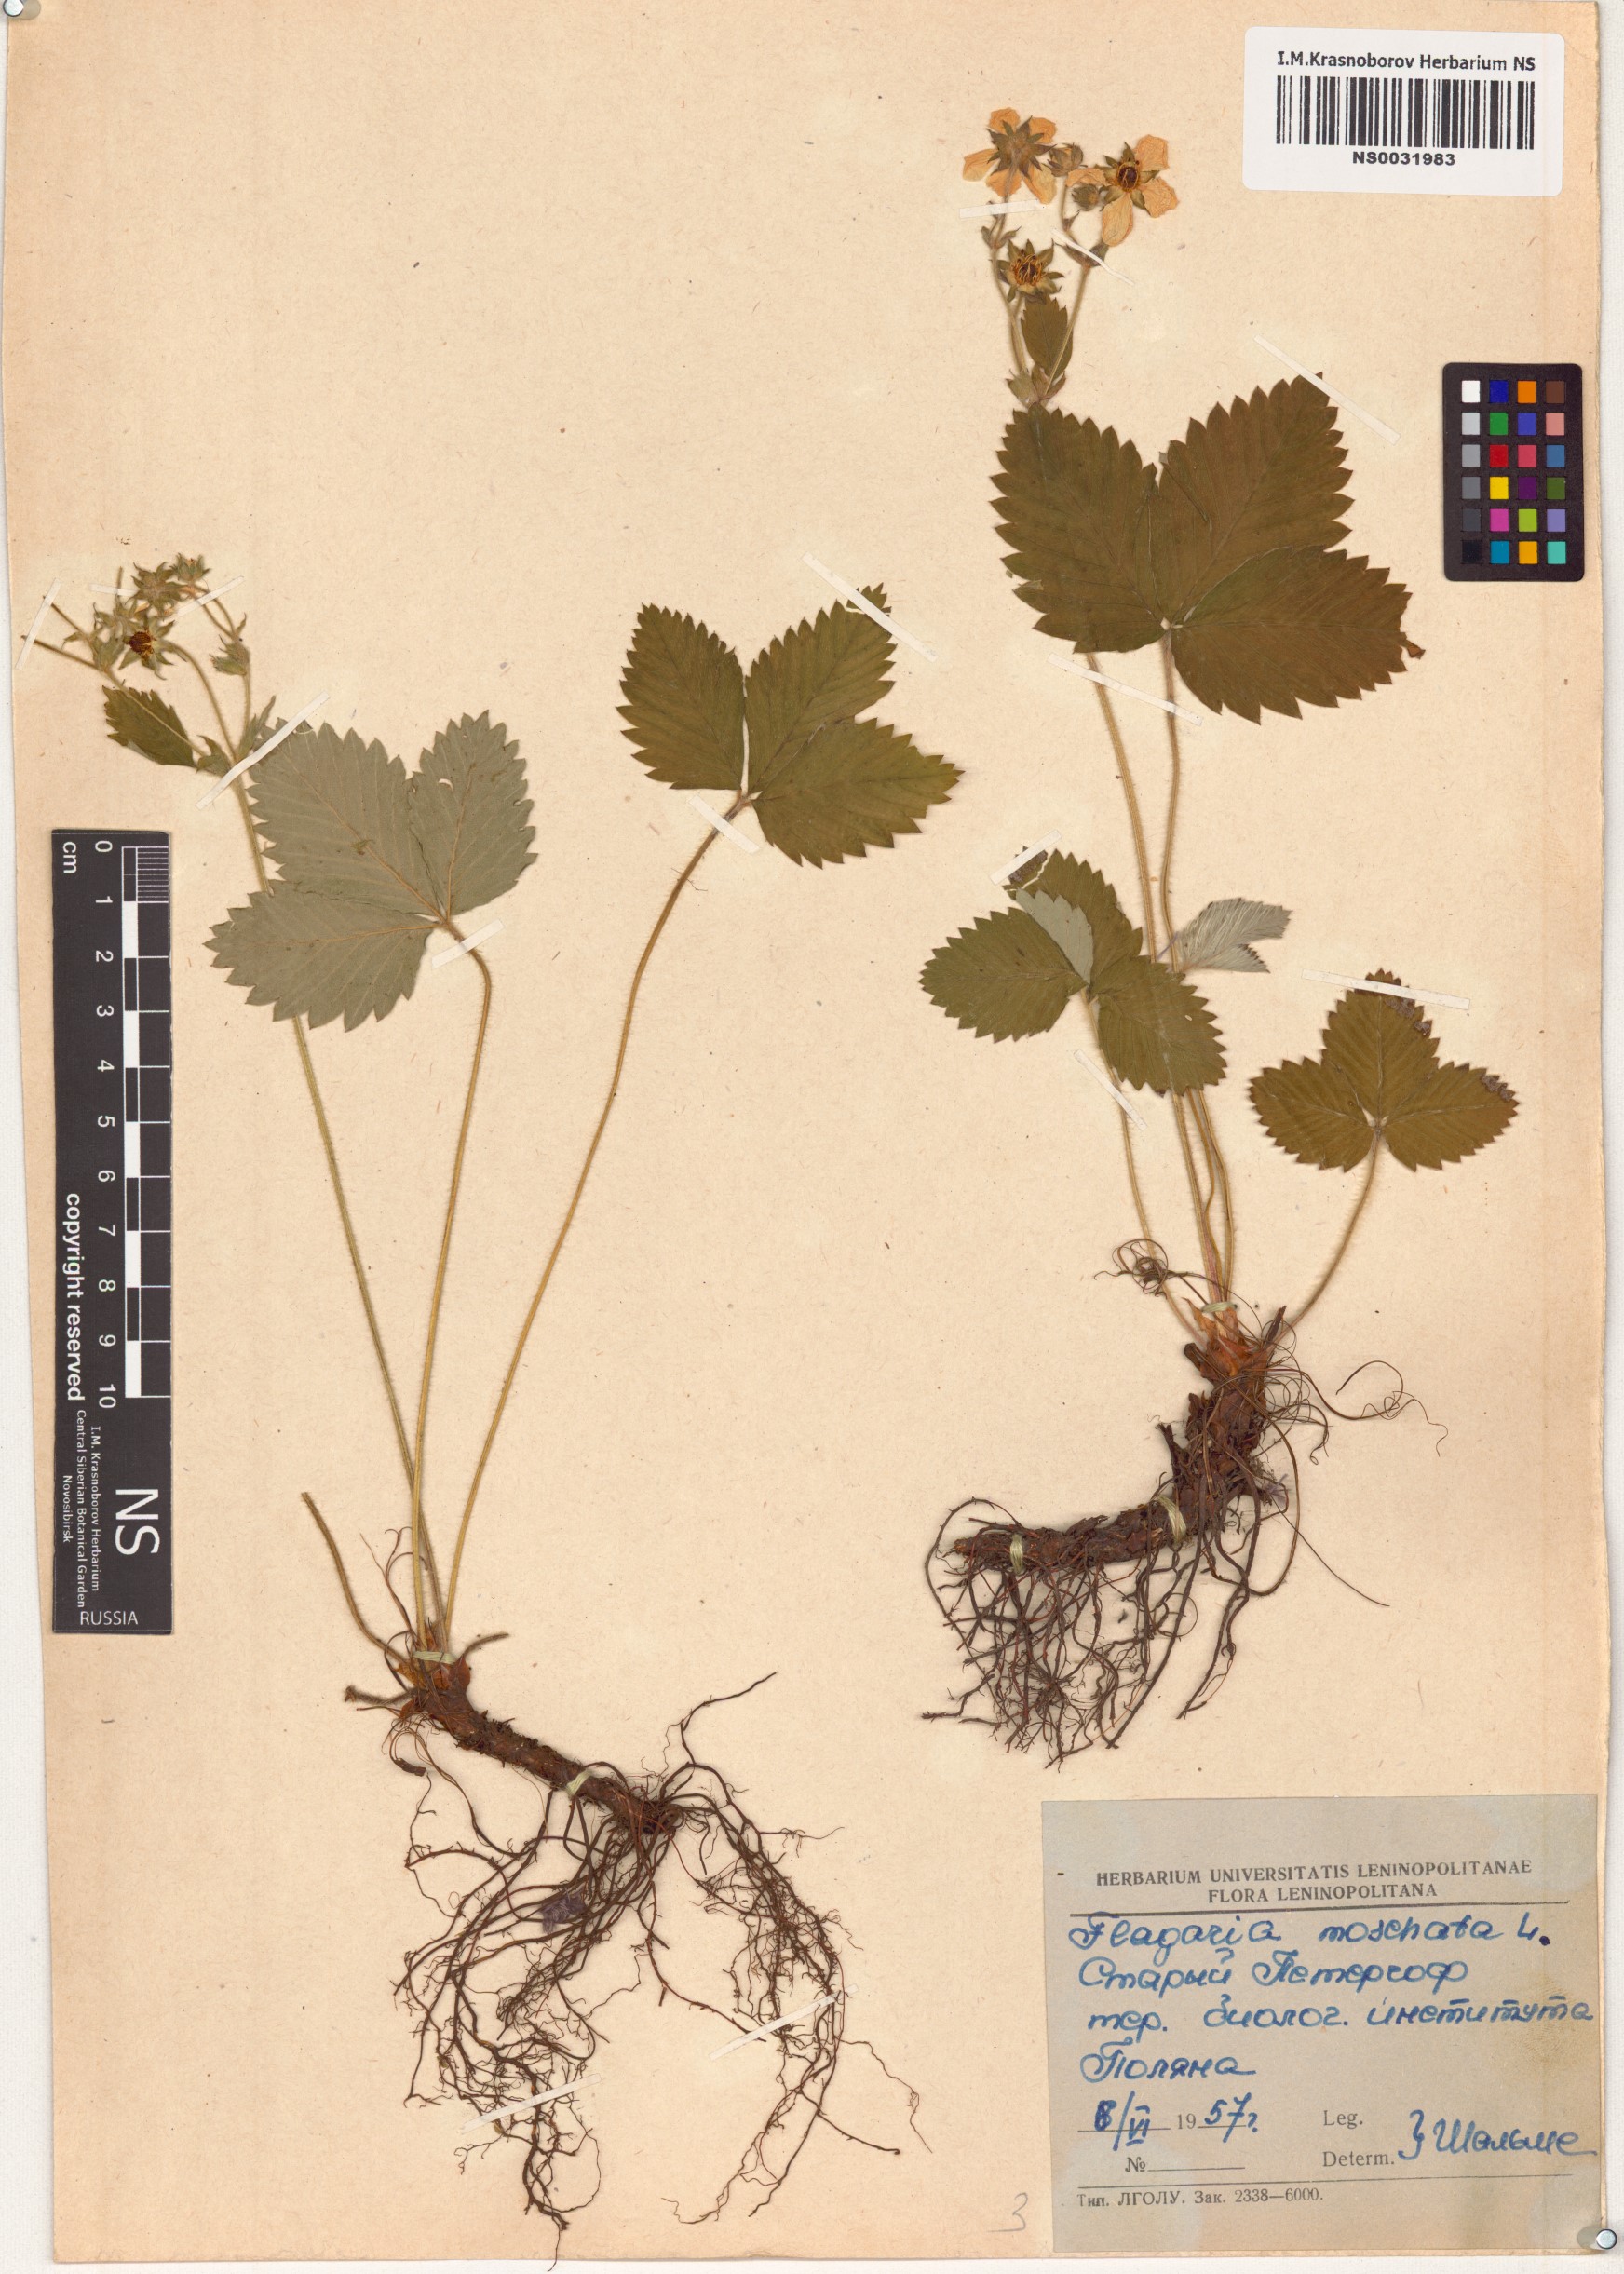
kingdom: Plantae
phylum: Tracheophyta
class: Magnoliopsida
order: Rosales
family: Rosaceae
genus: Fragaria
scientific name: Fragaria moschata
